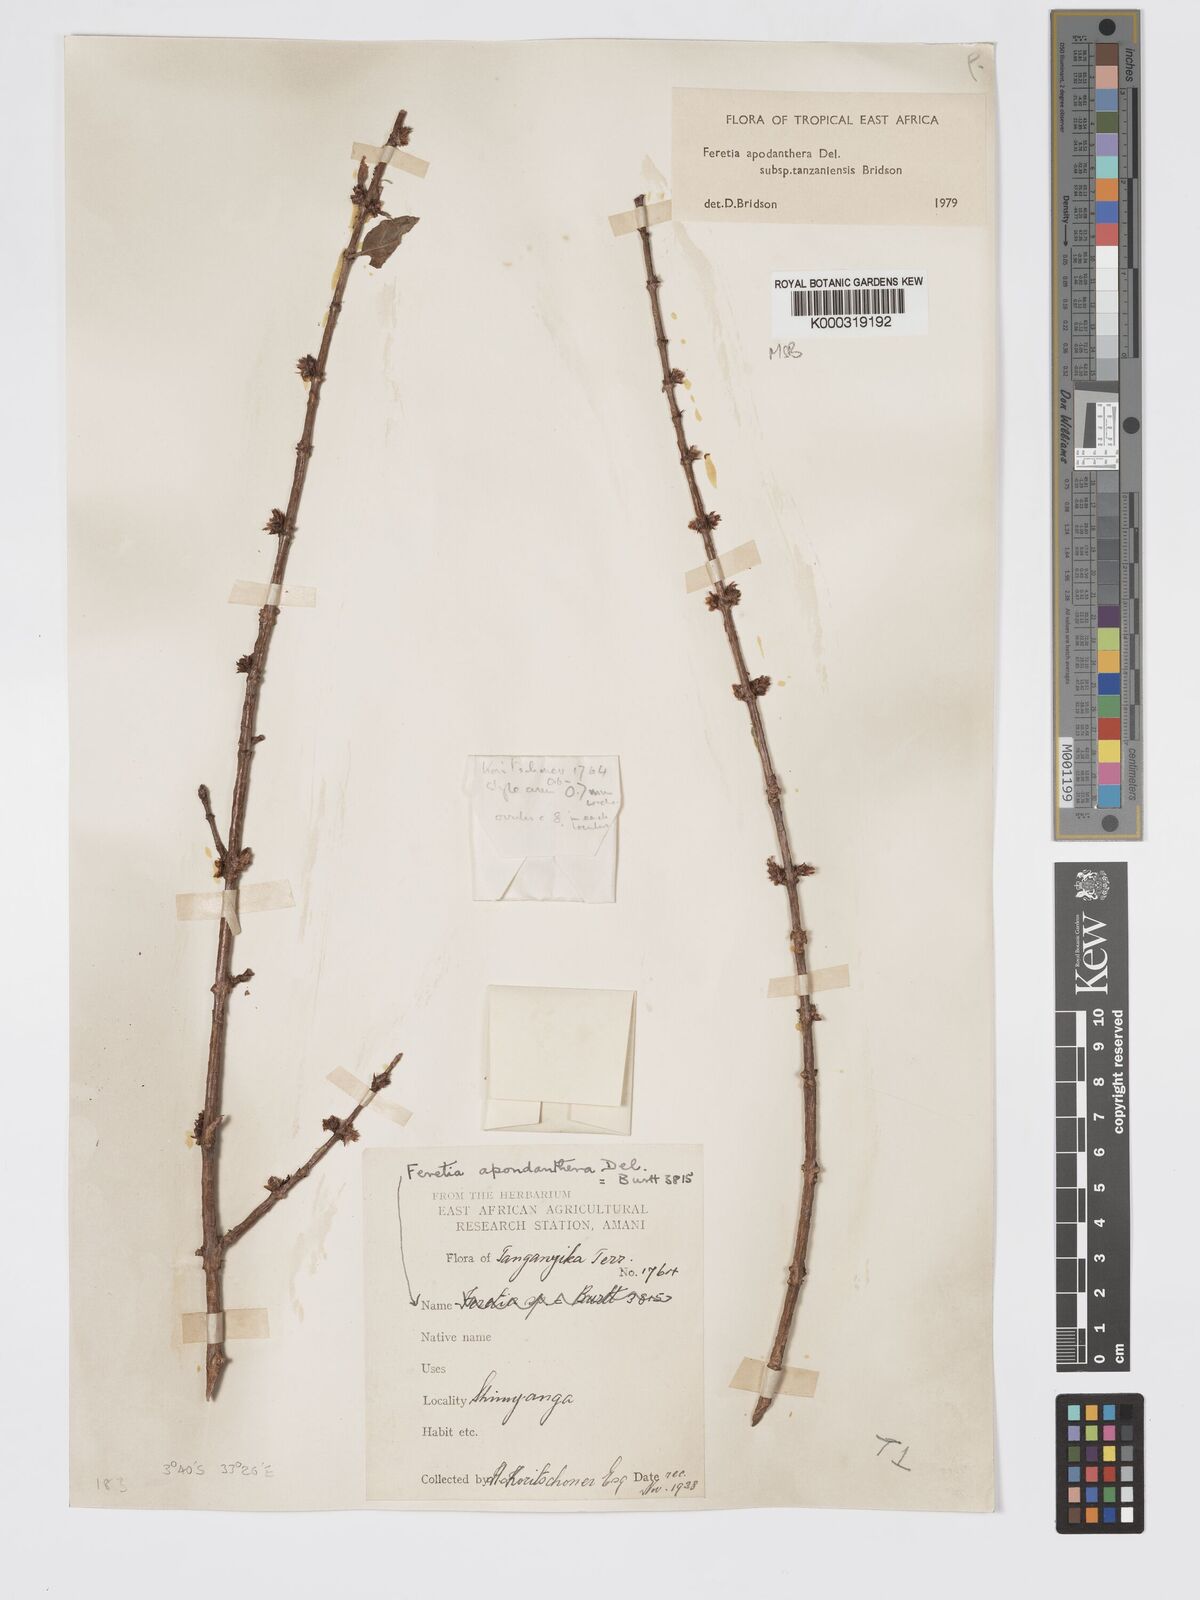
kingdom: Plantae
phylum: Tracheophyta
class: Magnoliopsida
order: Gentianales
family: Rubiaceae
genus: Feretia
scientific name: Feretia apodanthera
